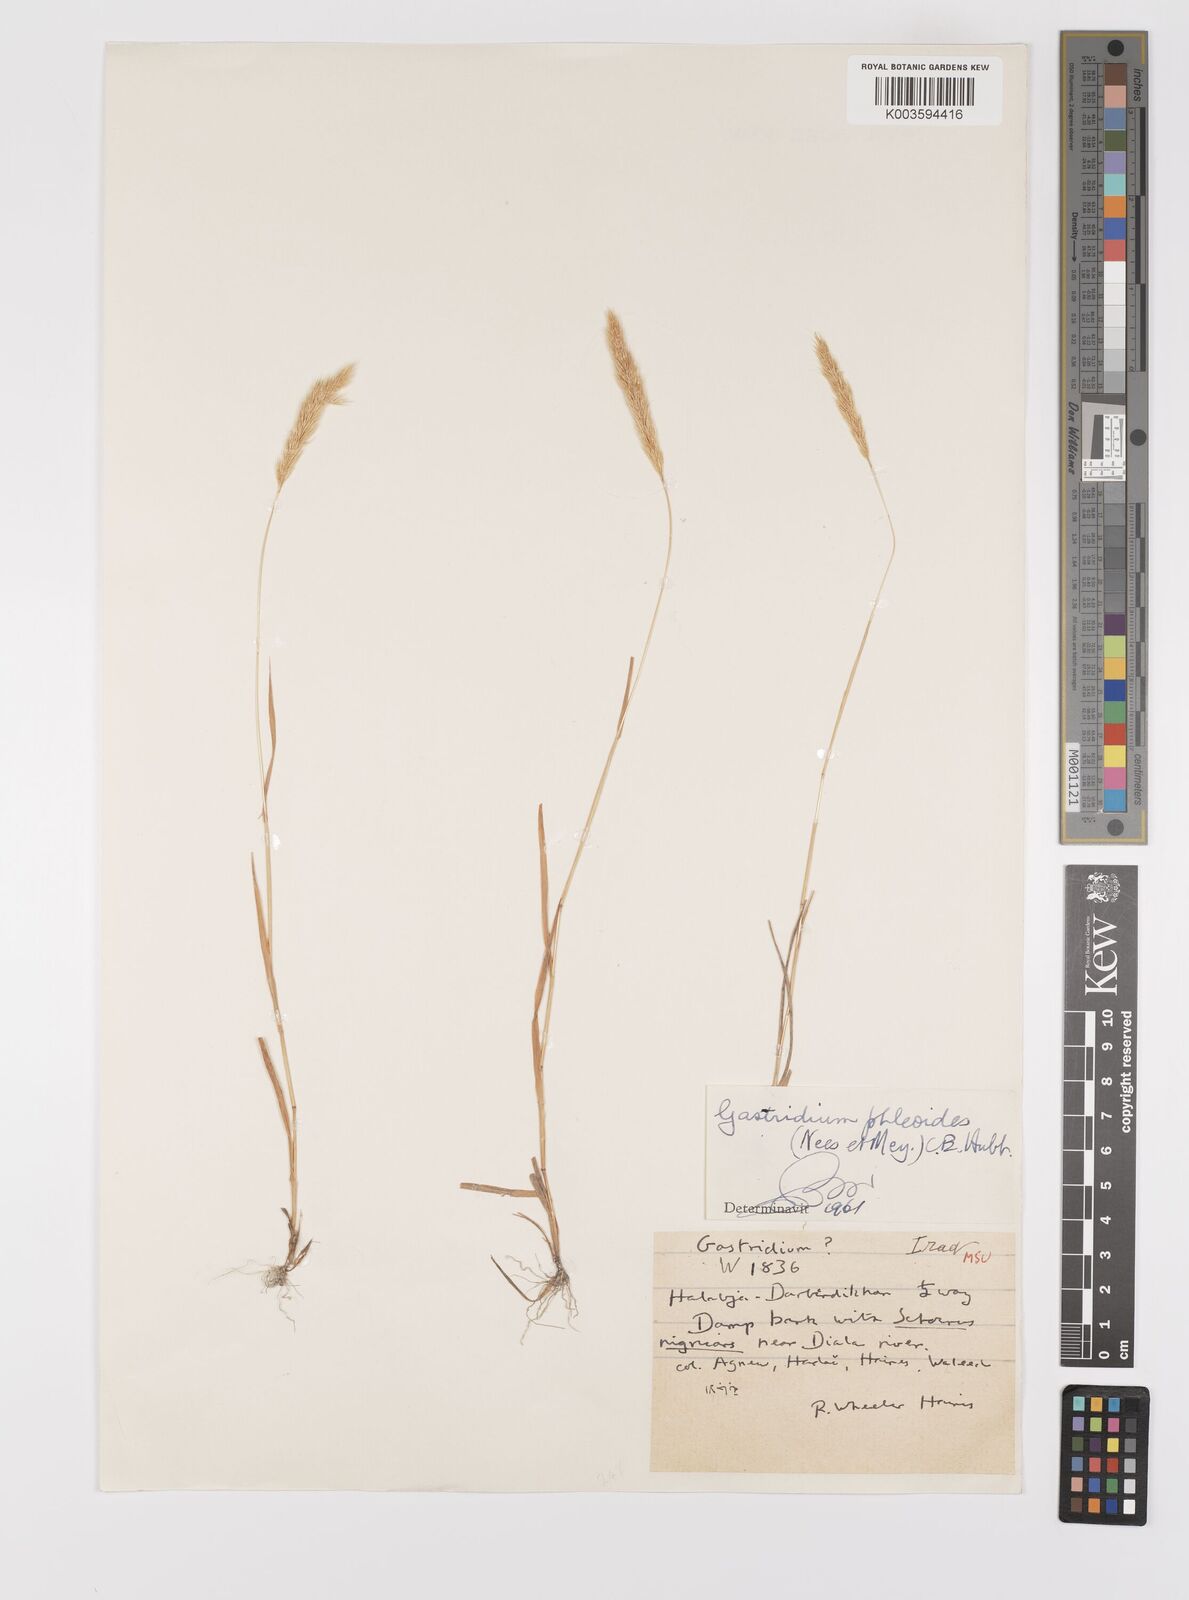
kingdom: Plantae
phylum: Tracheophyta
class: Liliopsida
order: Poales
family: Poaceae
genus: Gastridium
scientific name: Gastridium phleoides
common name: Nit grass
